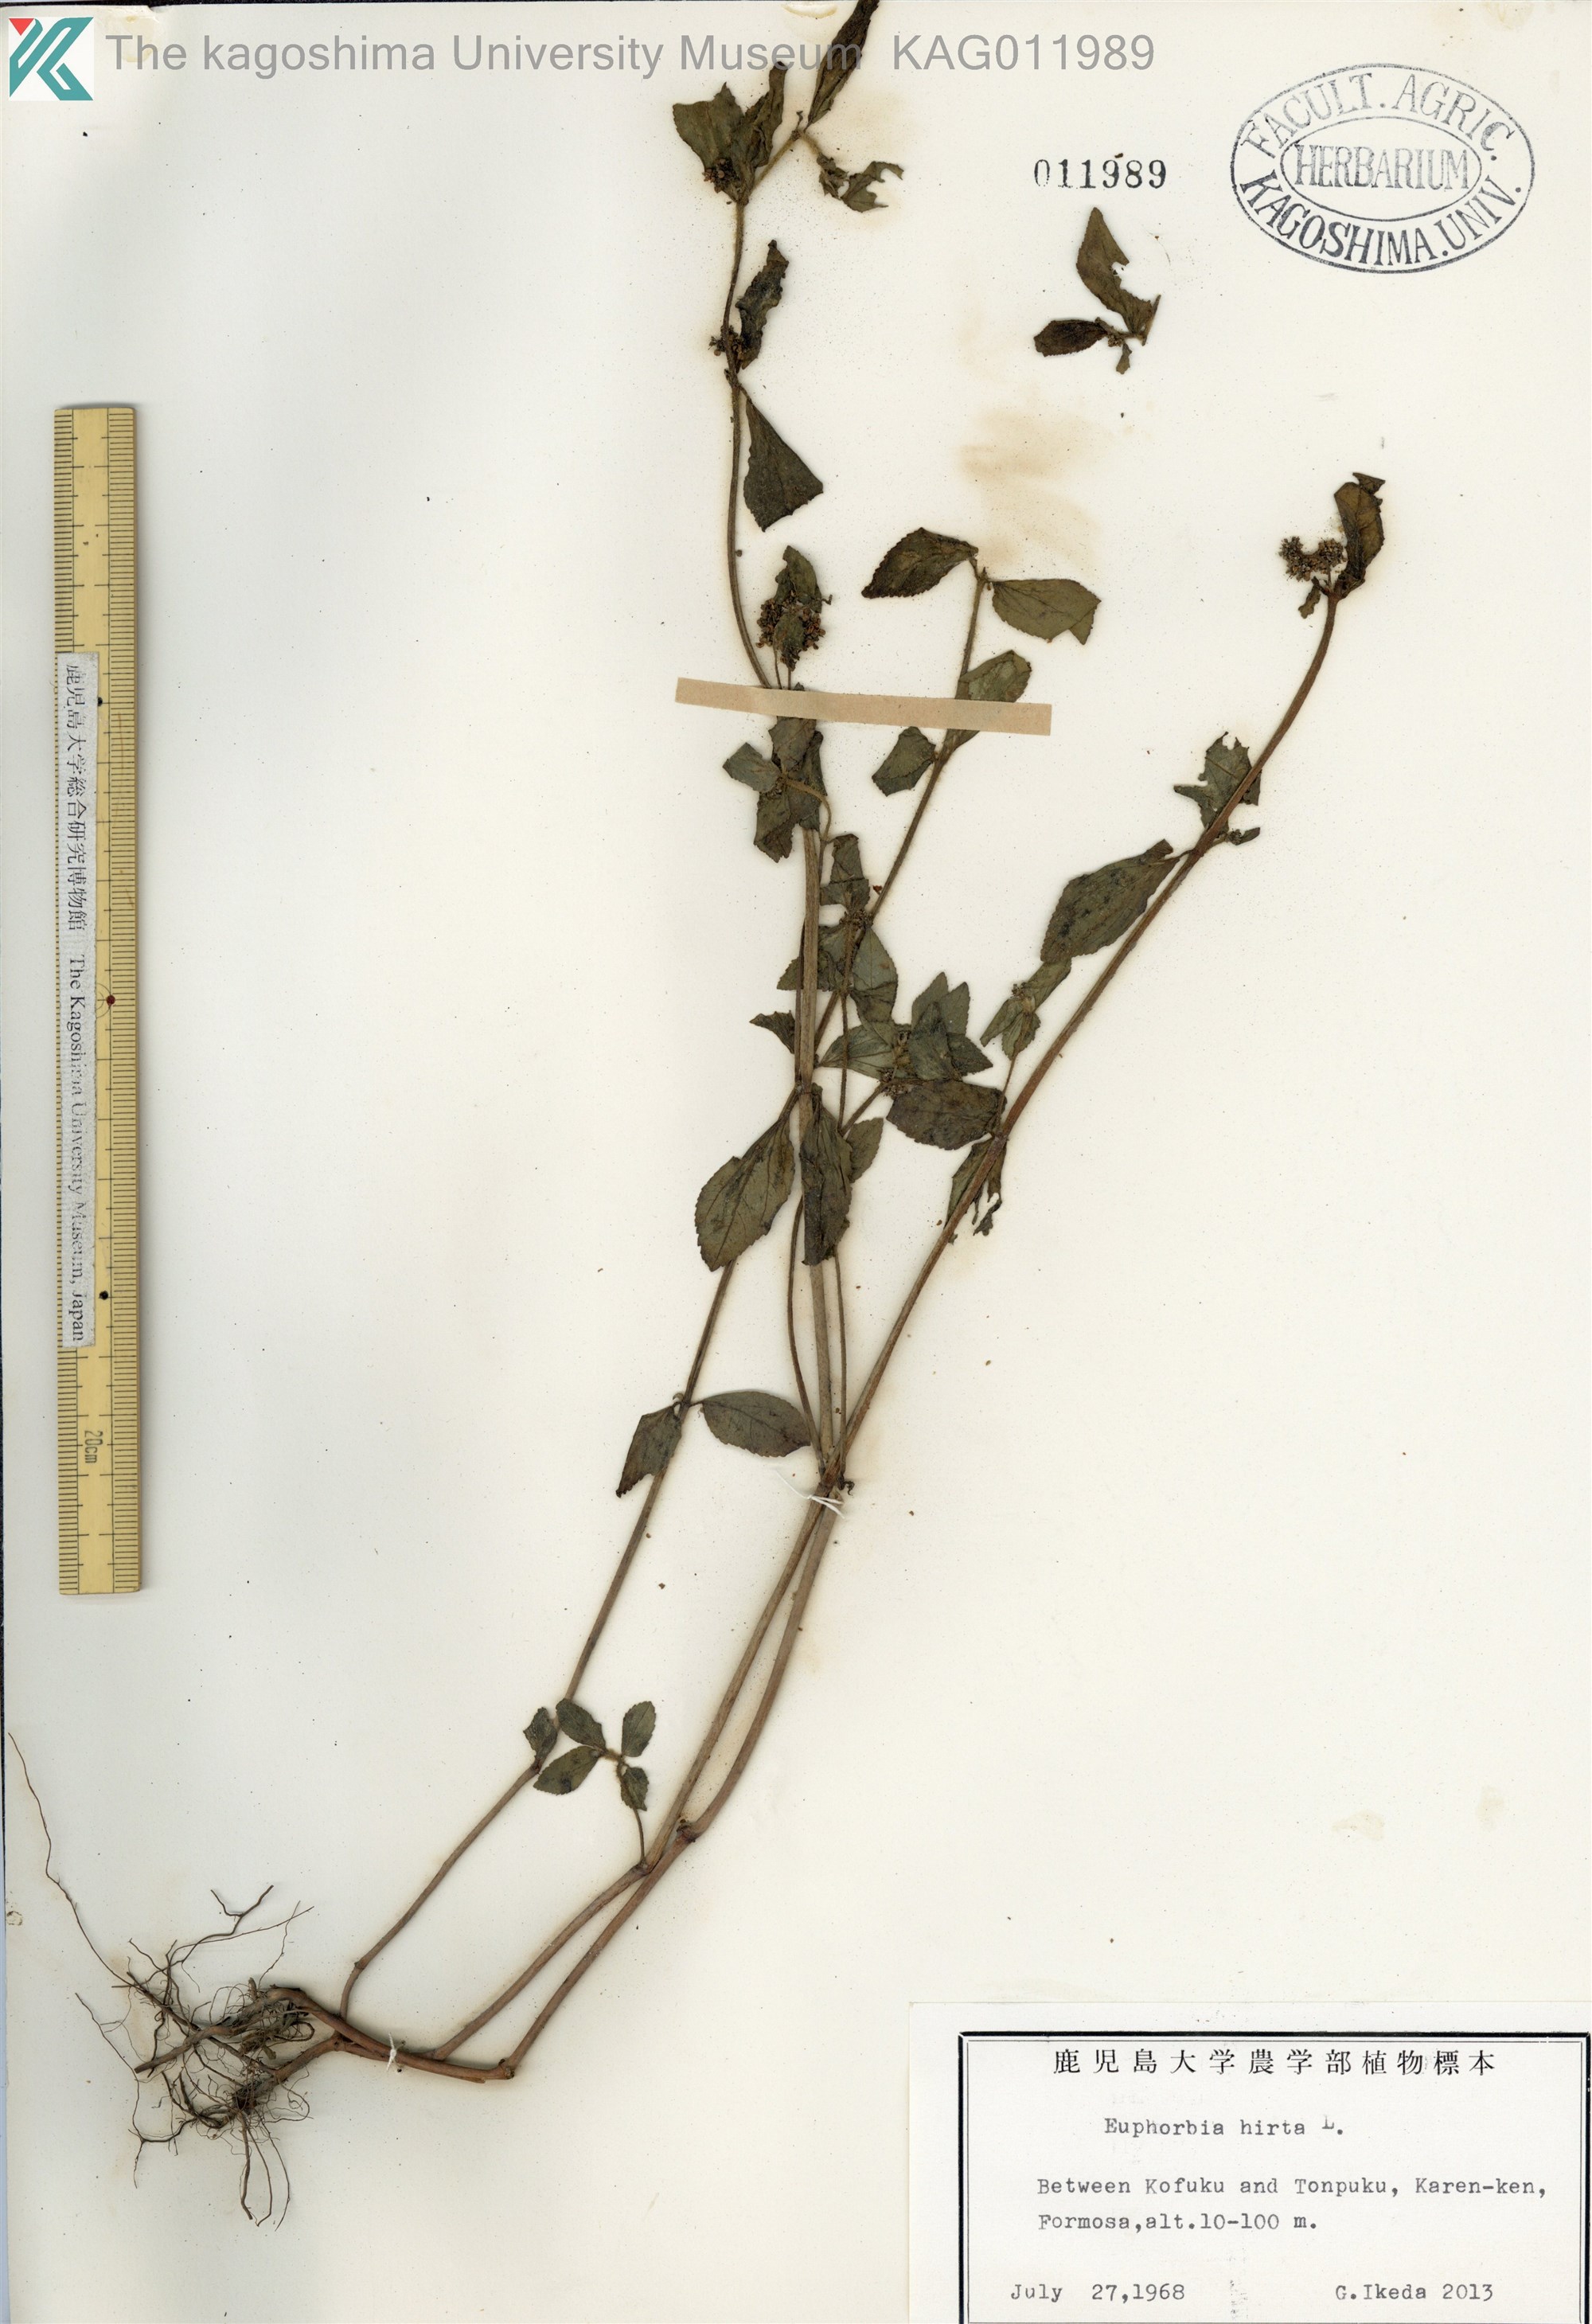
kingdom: Plantae
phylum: Tracheophyta
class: Magnoliopsida
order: Malpighiales
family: Euphorbiaceae
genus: Euphorbia
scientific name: Euphorbia hirta
